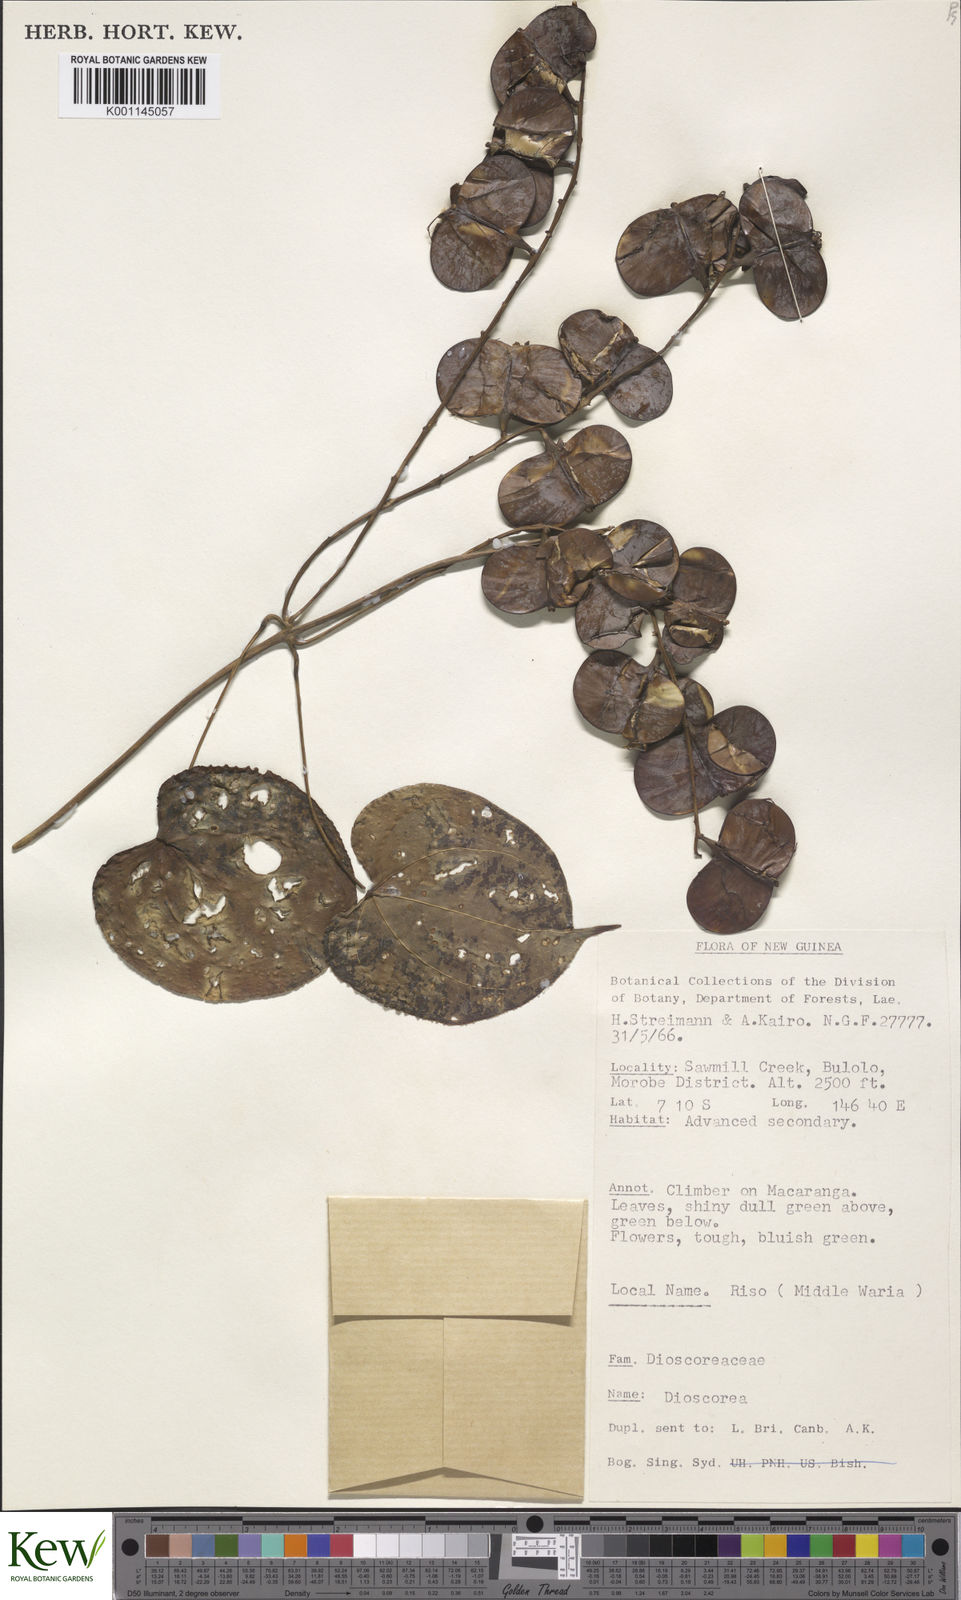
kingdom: Plantae
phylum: Tracheophyta
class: Liliopsida
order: Dioscoreales
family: Dioscoreaceae
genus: Dioscorea
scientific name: Dioscorea
